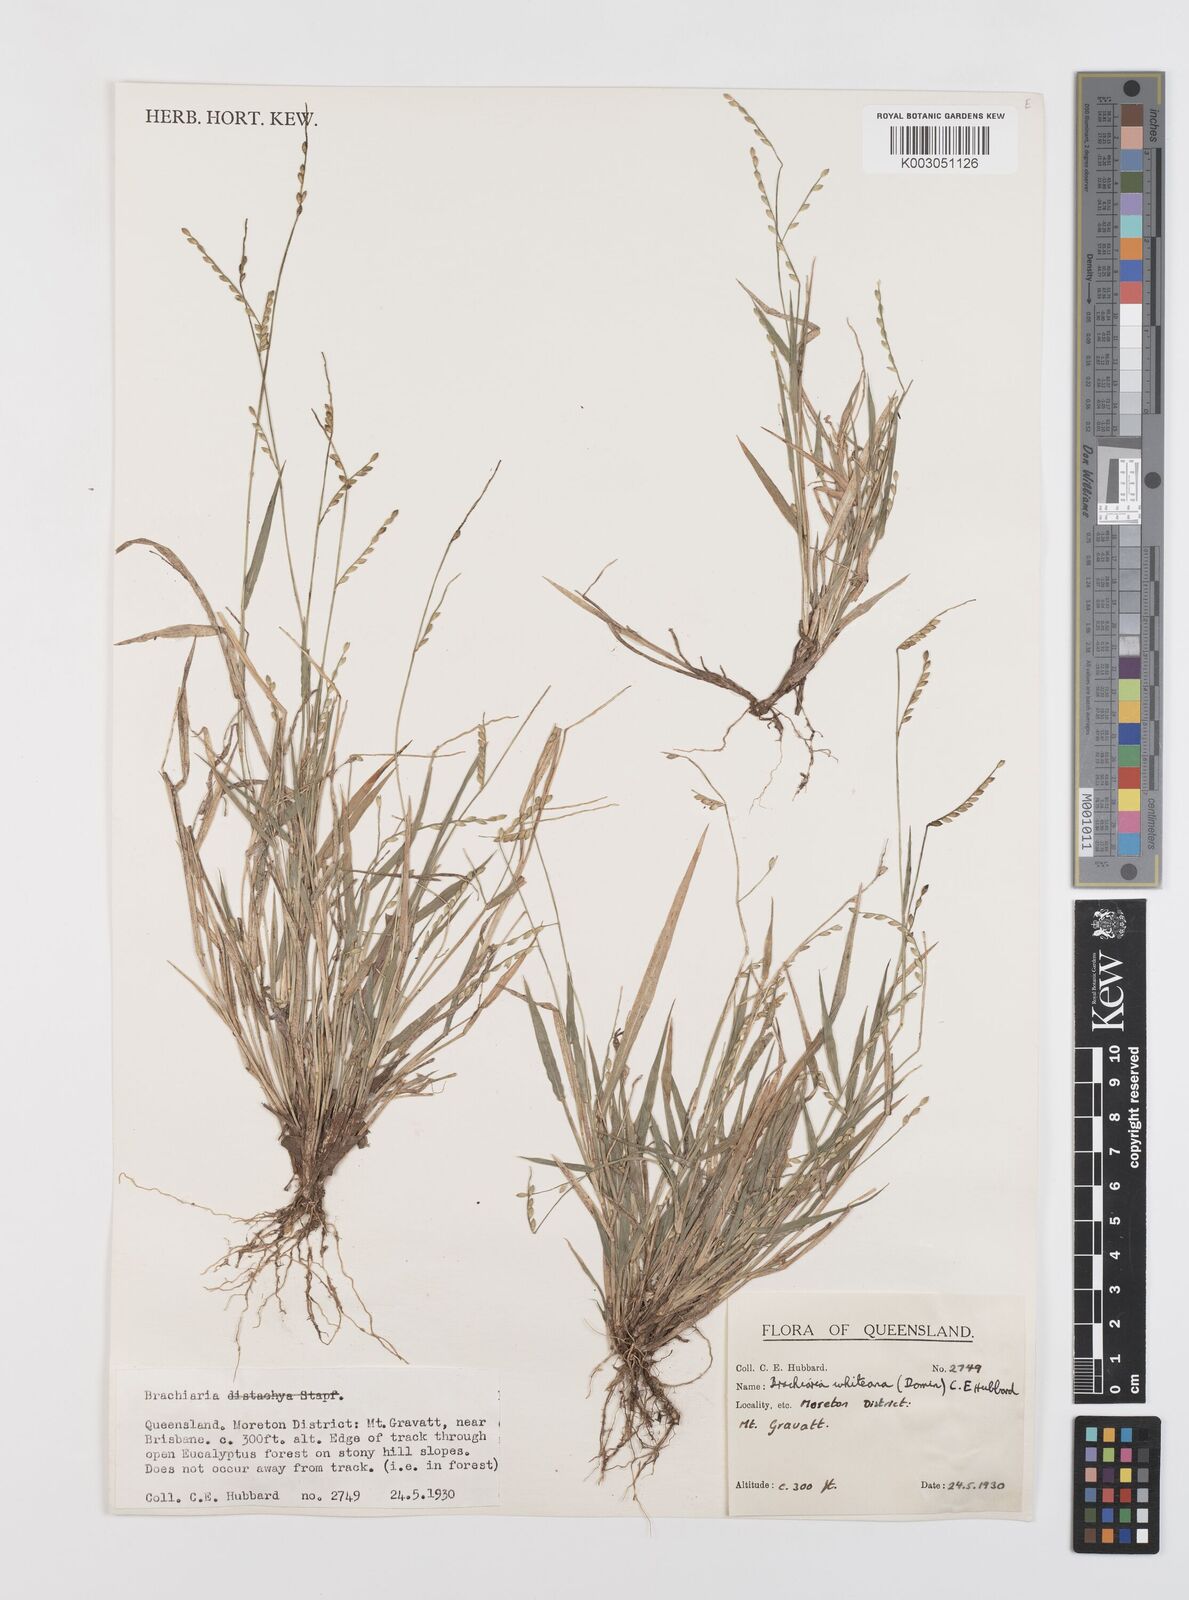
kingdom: Plantae
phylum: Tracheophyta
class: Liliopsida
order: Poales
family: Poaceae
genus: Urochloa
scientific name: Urochloa whiteana
